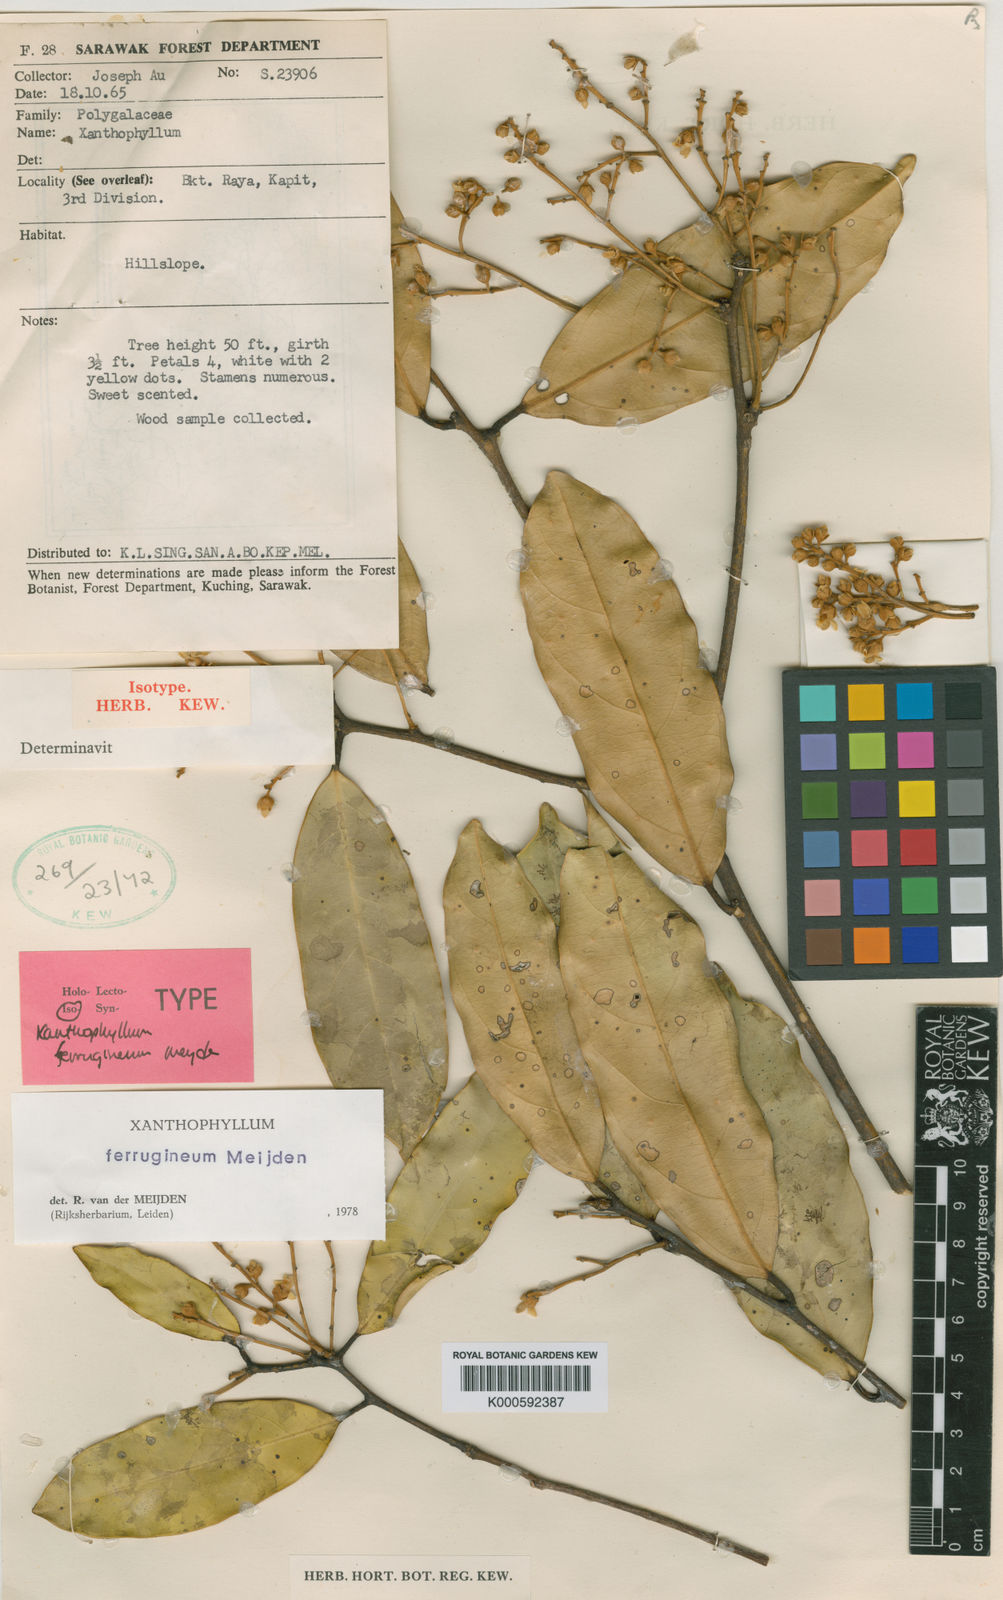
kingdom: Plantae
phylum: Tracheophyta
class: Magnoliopsida
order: Fabales
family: Polygalaceae
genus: Xanthophyllum
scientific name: Xanthophyllum ferrugineum
